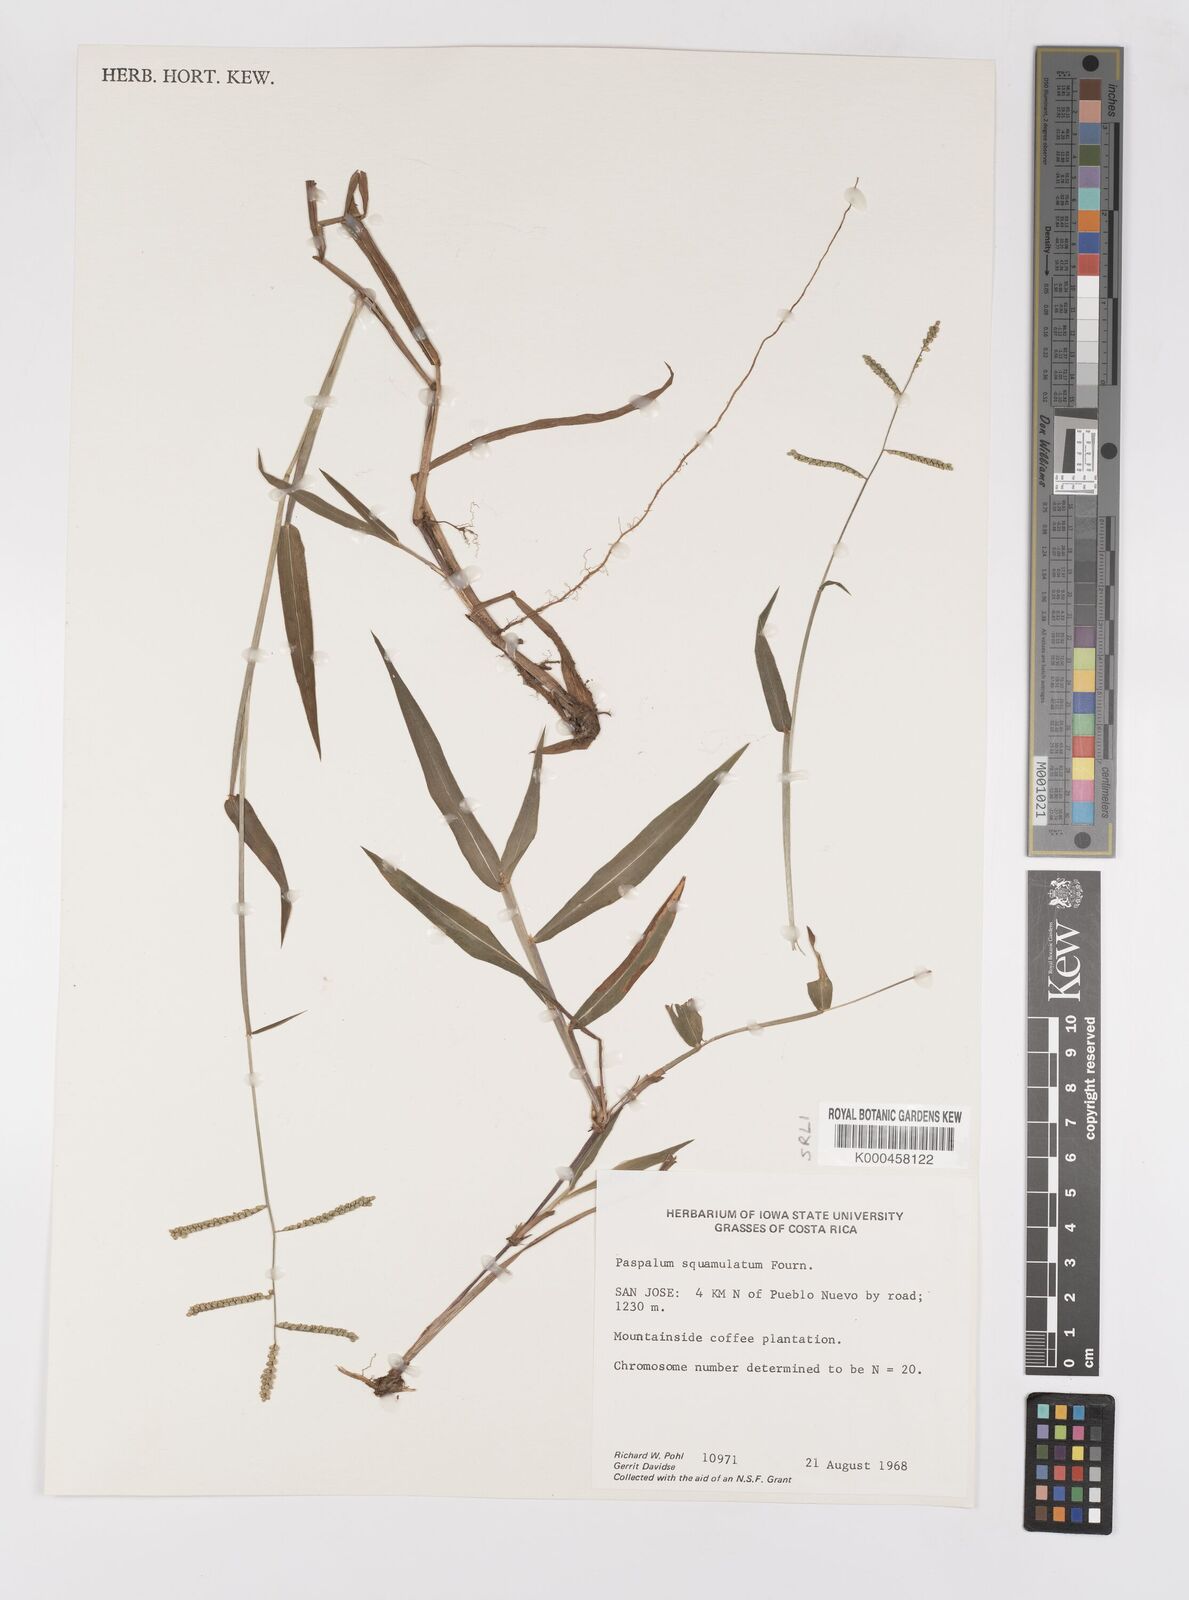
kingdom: Plantae
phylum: Tracheophyta
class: Liliopsida
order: Poales
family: Poaceae
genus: Paspalum
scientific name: Paspalum
